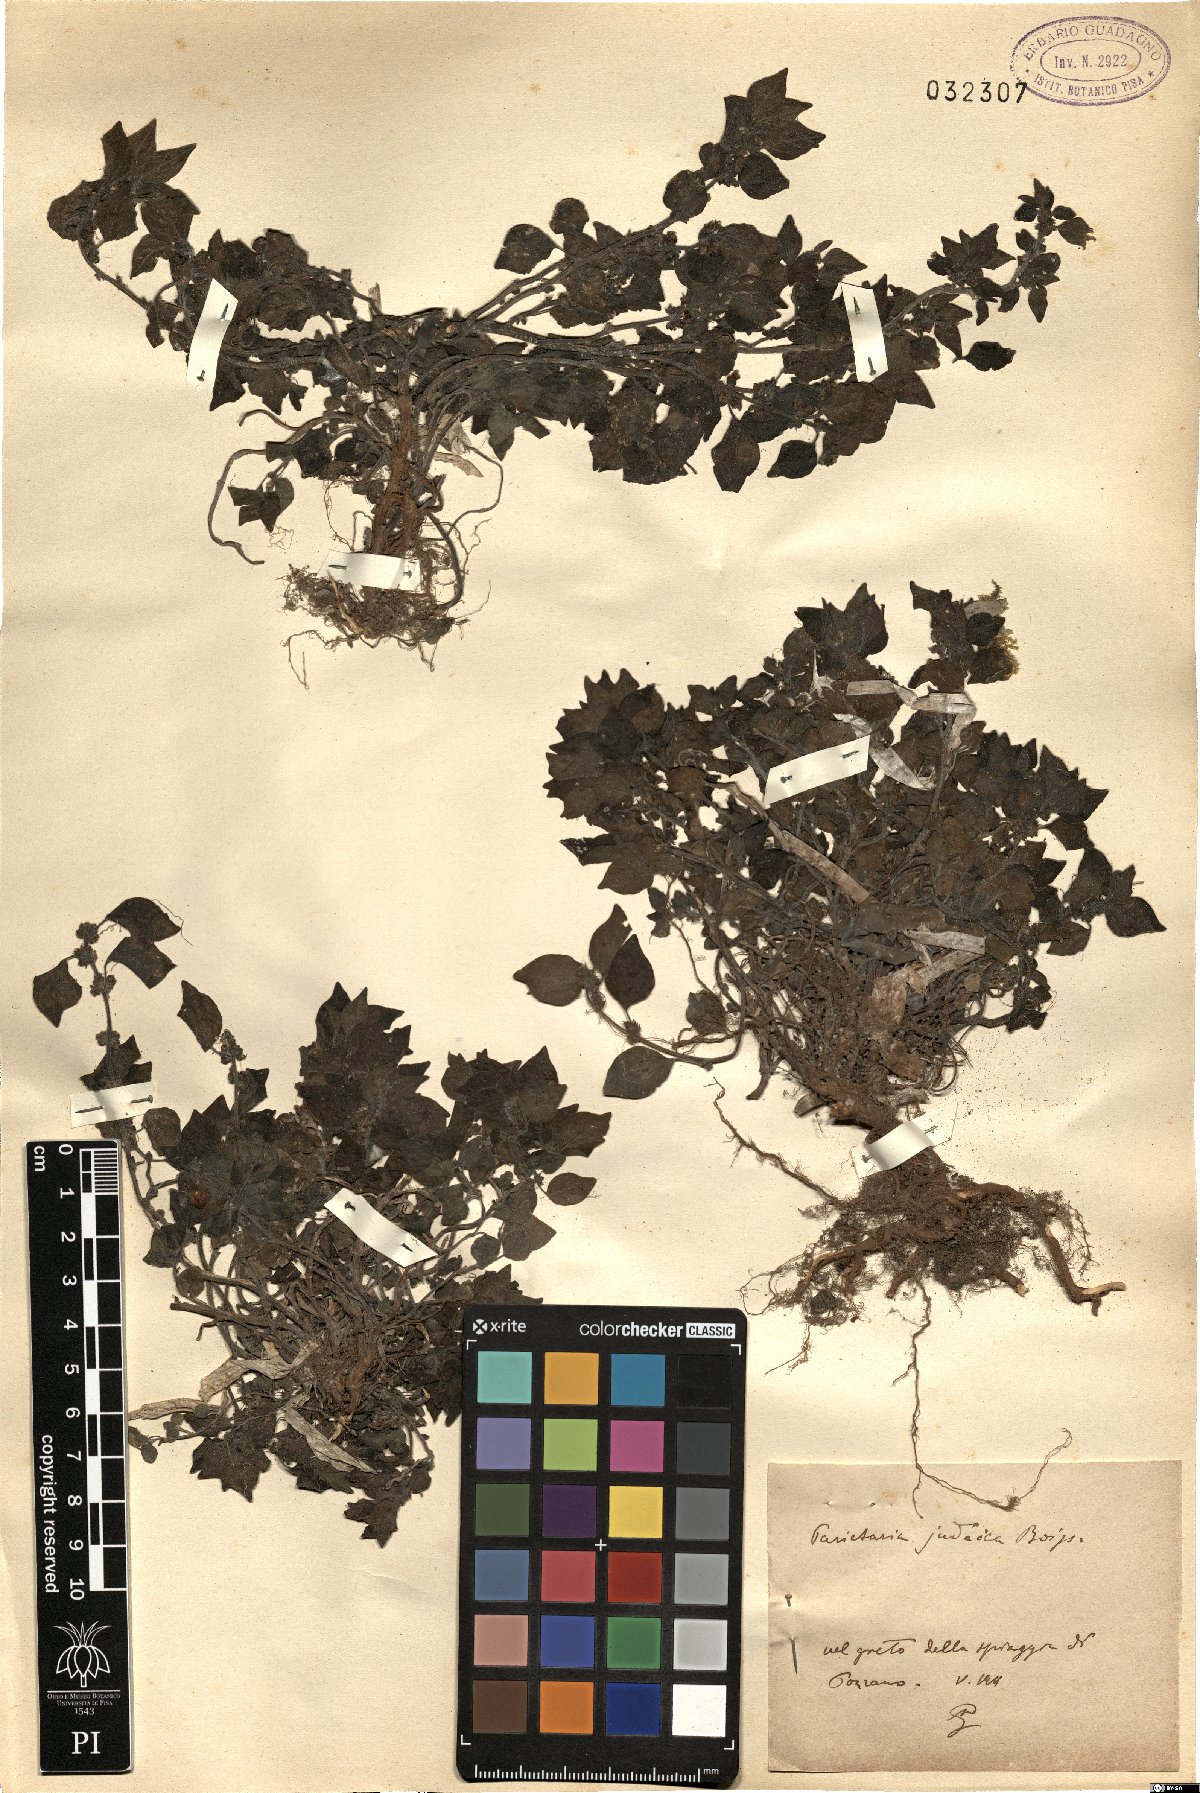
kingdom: Plantae
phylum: Tracheophyta
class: Magnoliopsida
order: Rosales
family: Urticaceae
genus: Parietaria
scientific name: Parietaria judaica
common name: Pellitory-of-the-wall
